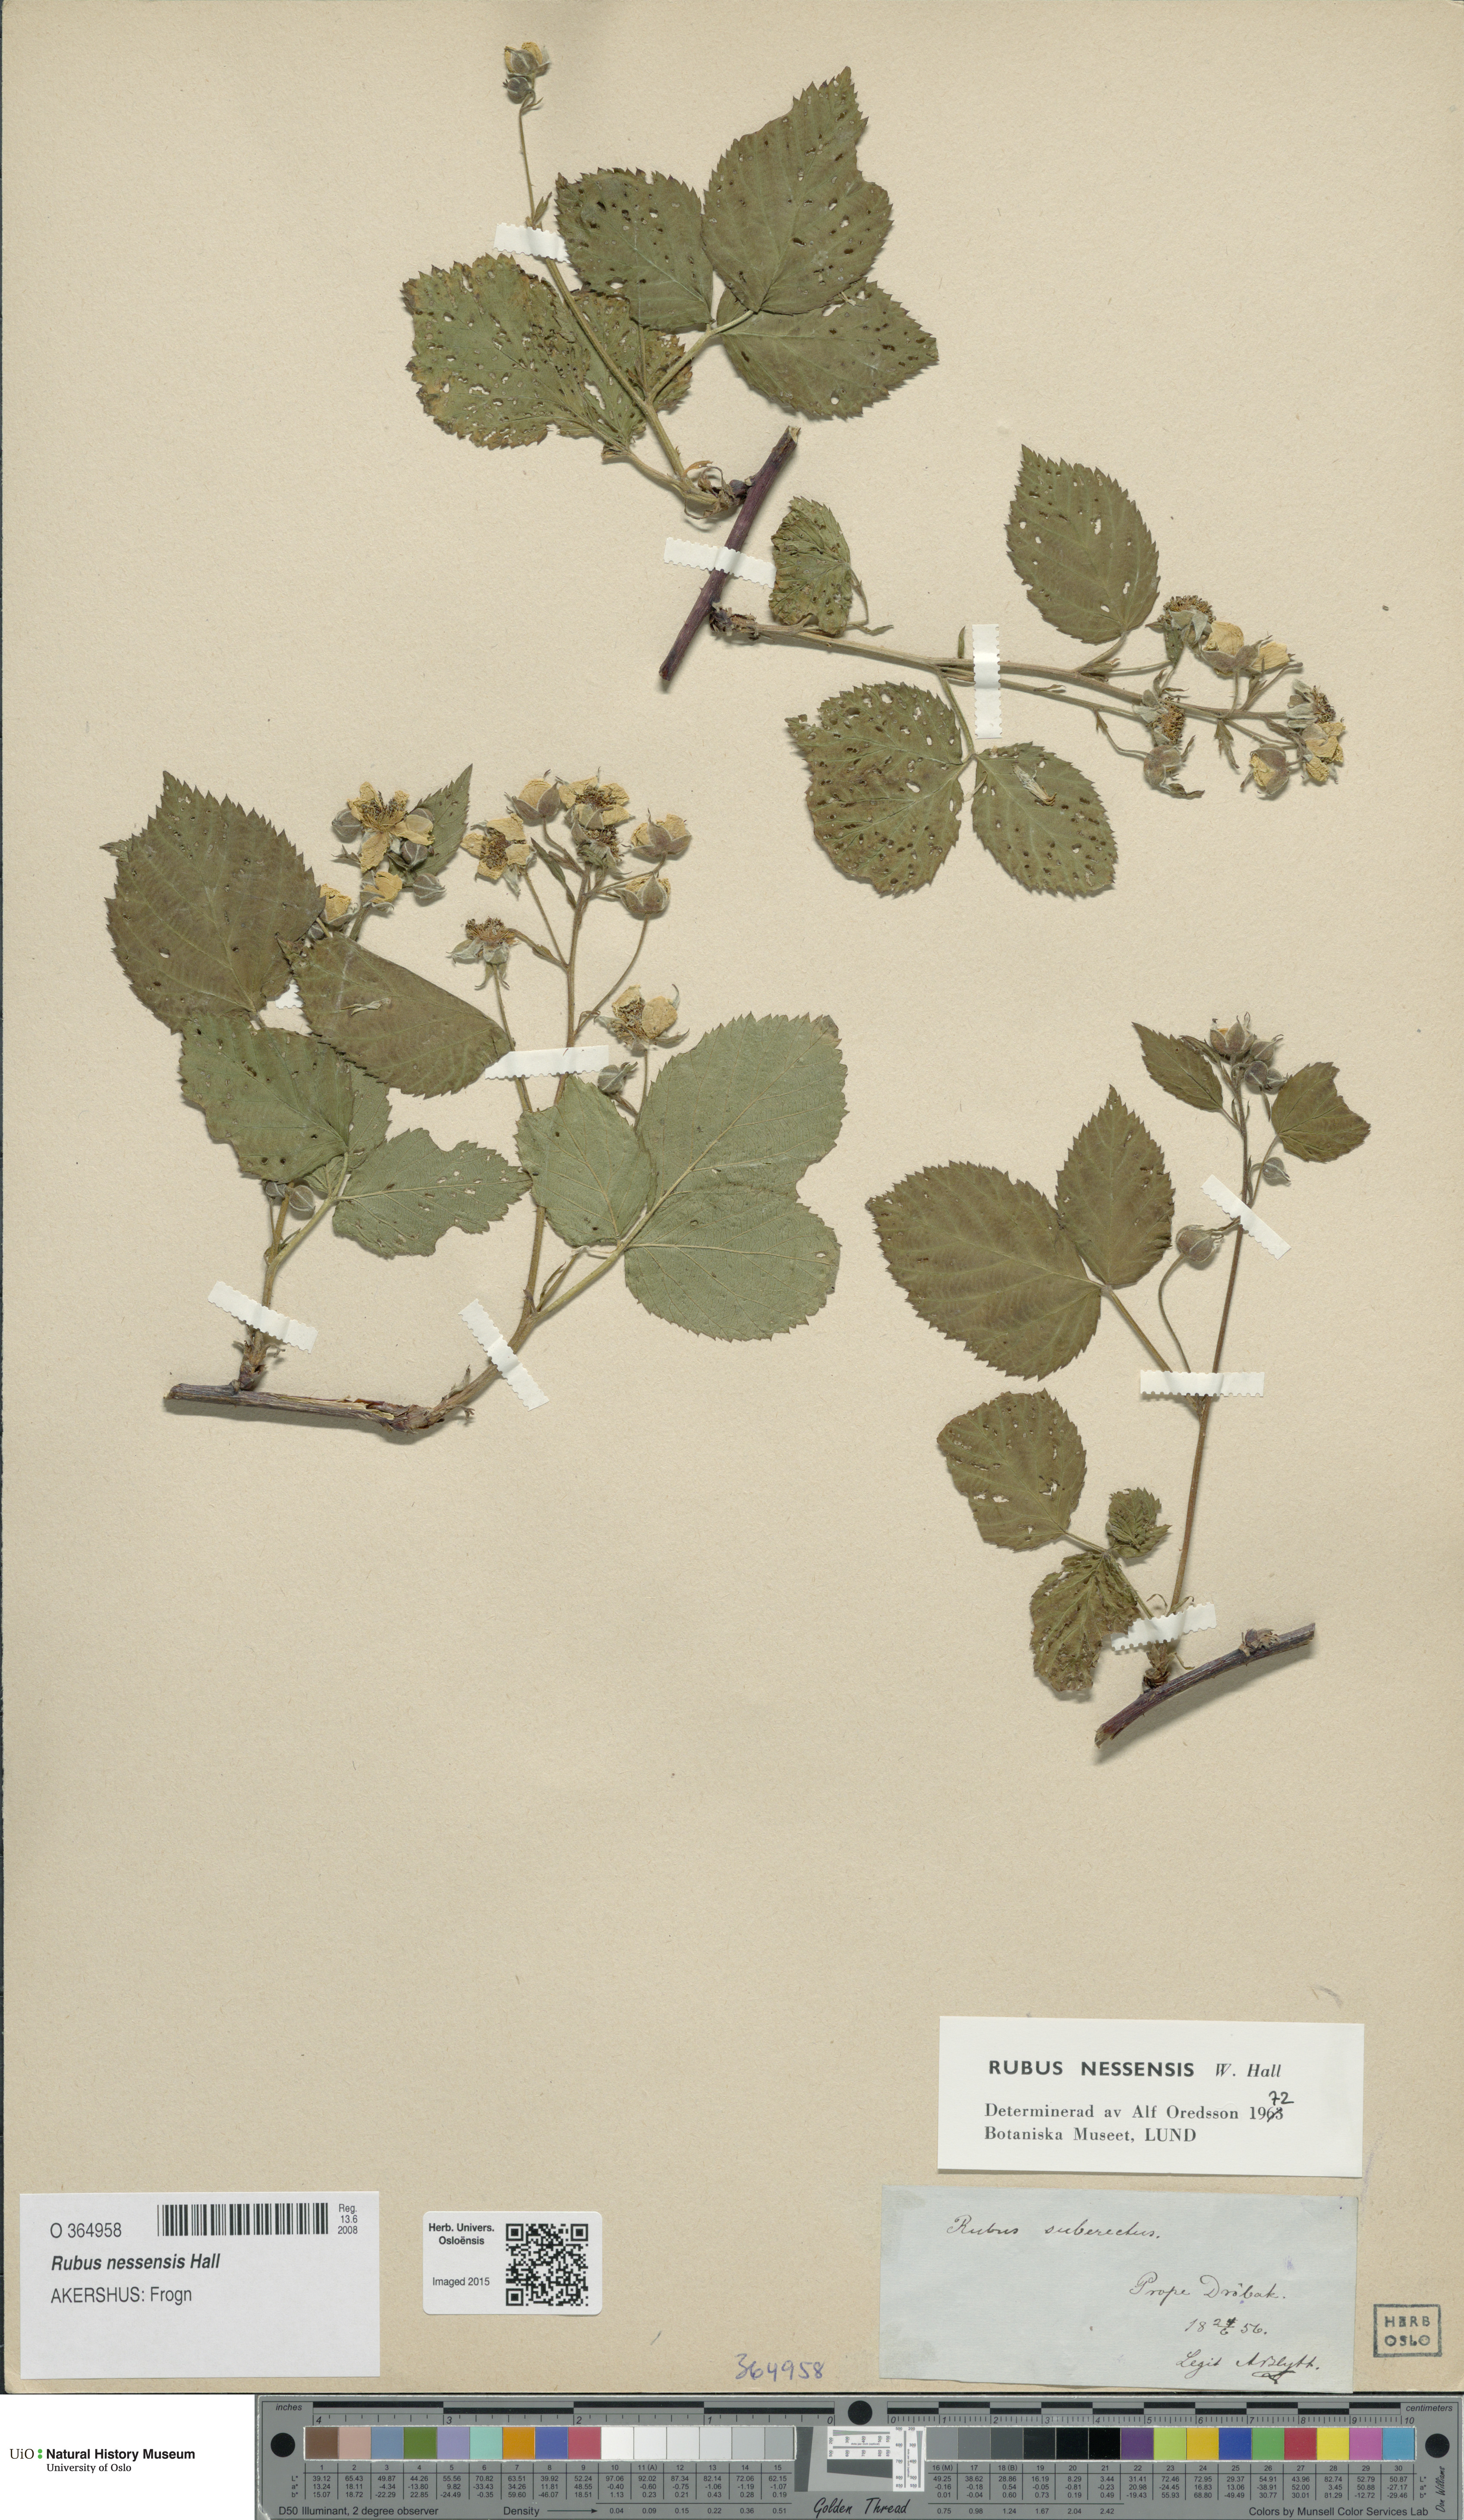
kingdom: Plantae
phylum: Tracheophyta
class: Magnoliopsida
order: Rosales
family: Rosaceae
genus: Rubus
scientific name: Rubus polonicus
